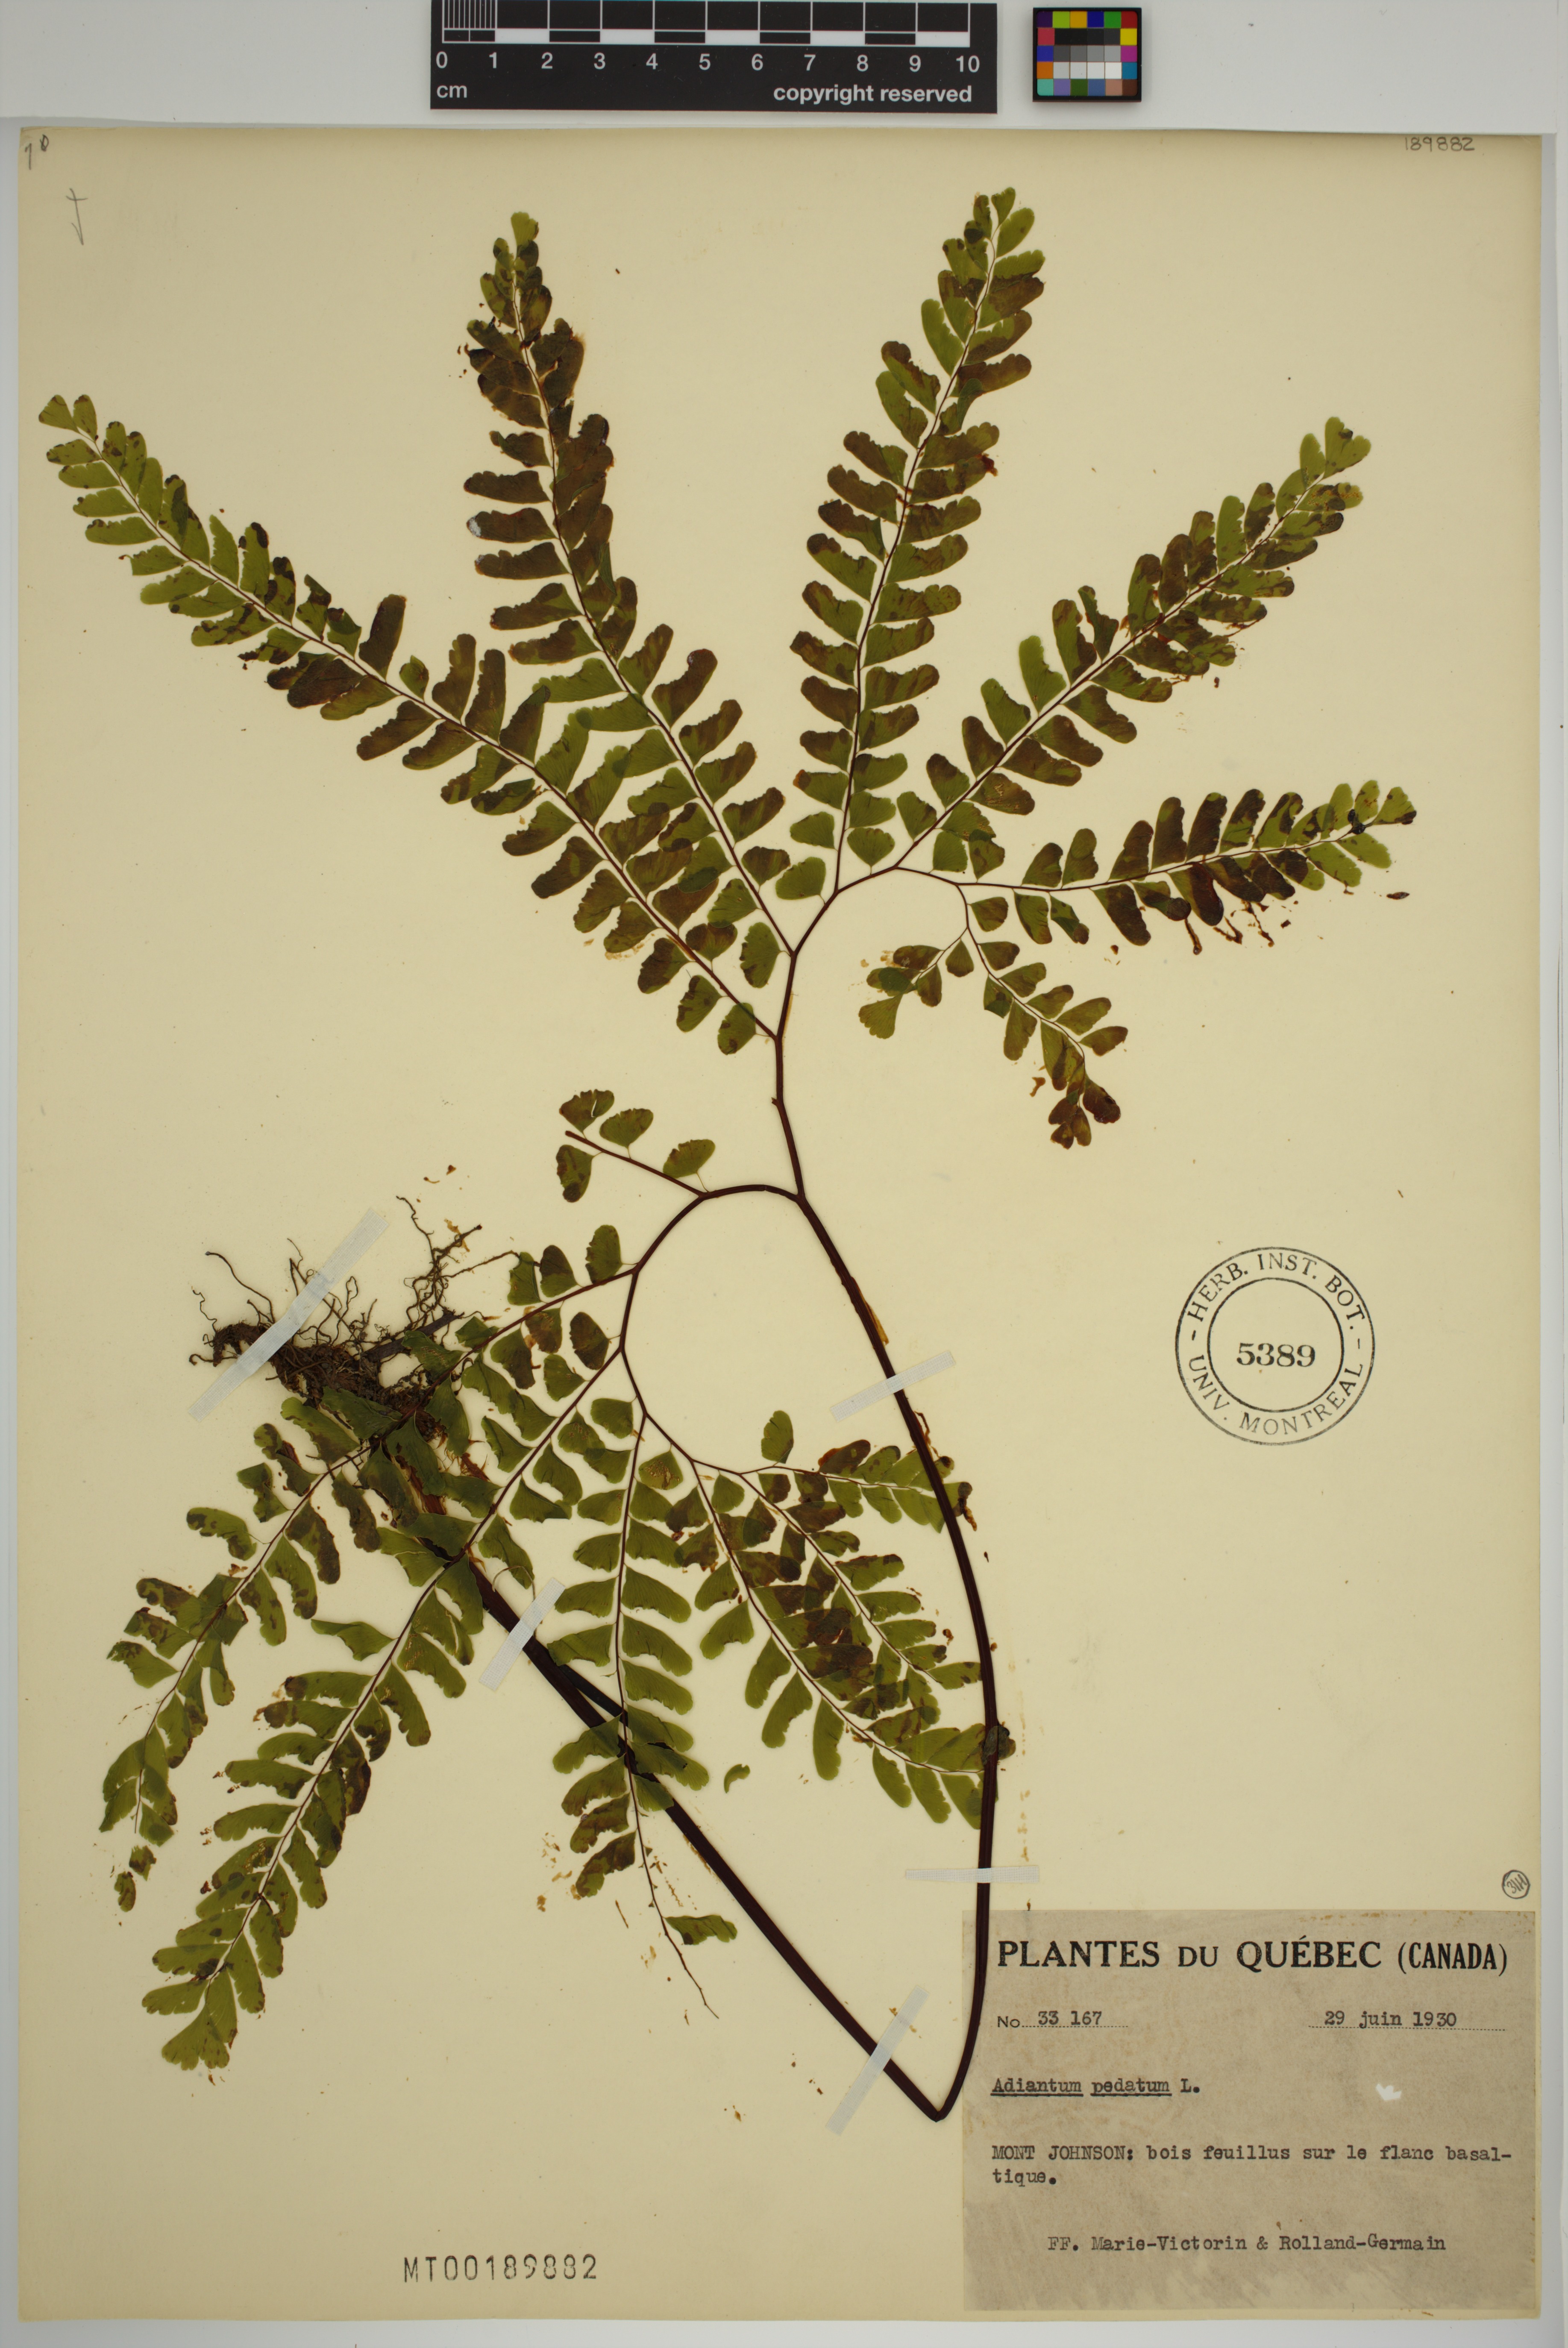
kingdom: Plantae
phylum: Tracheophyta
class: Polypodiopsida
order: Polypodiales
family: Pteridaceae
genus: Adiantum
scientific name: Adiantum pedatum
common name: Five-finger fern
